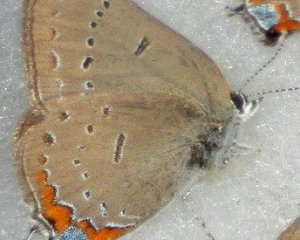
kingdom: Animalia
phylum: Arthropoda
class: Insecta
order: Lepidoptera
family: Lycaenidae
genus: Strymon
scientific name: Strymon acadica
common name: Acadian Hairstreak
